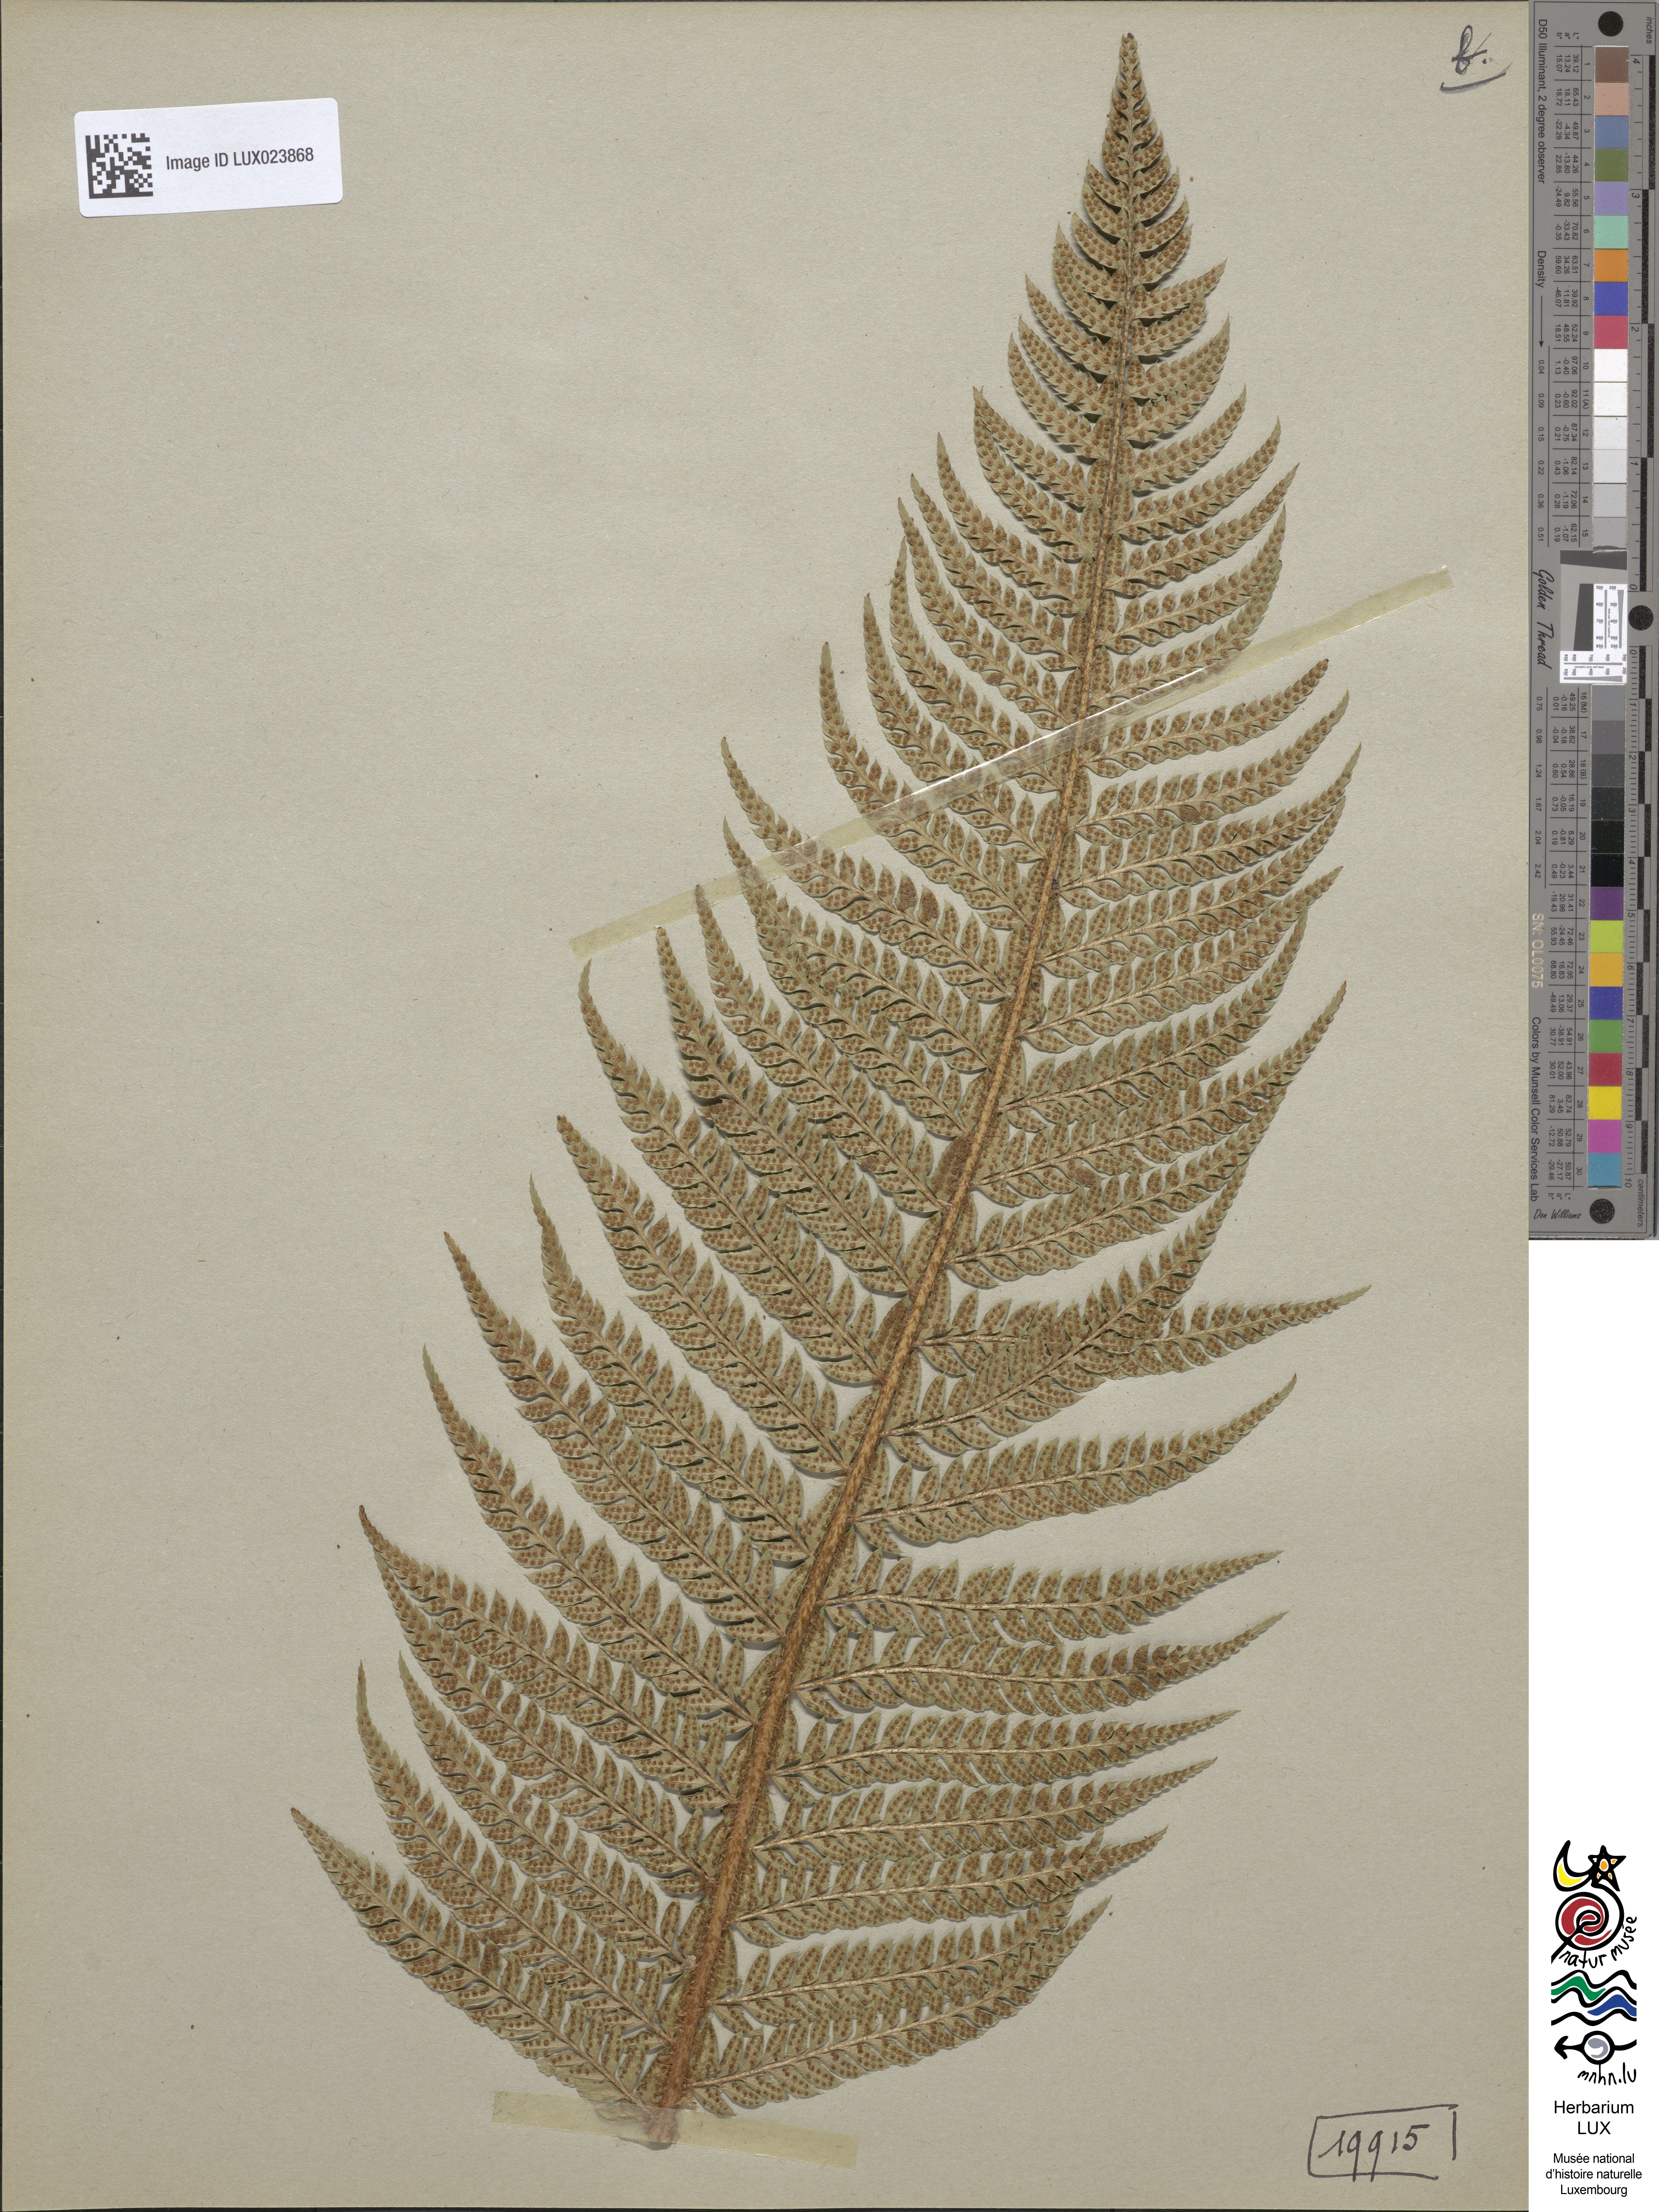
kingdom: Plantae
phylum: Tracheophyta
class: Polypodiopsida
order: Polypodiales
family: Dryopteridaceae
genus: Polystichum
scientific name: Polystichum aculeatum
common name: Hard shield-fern
